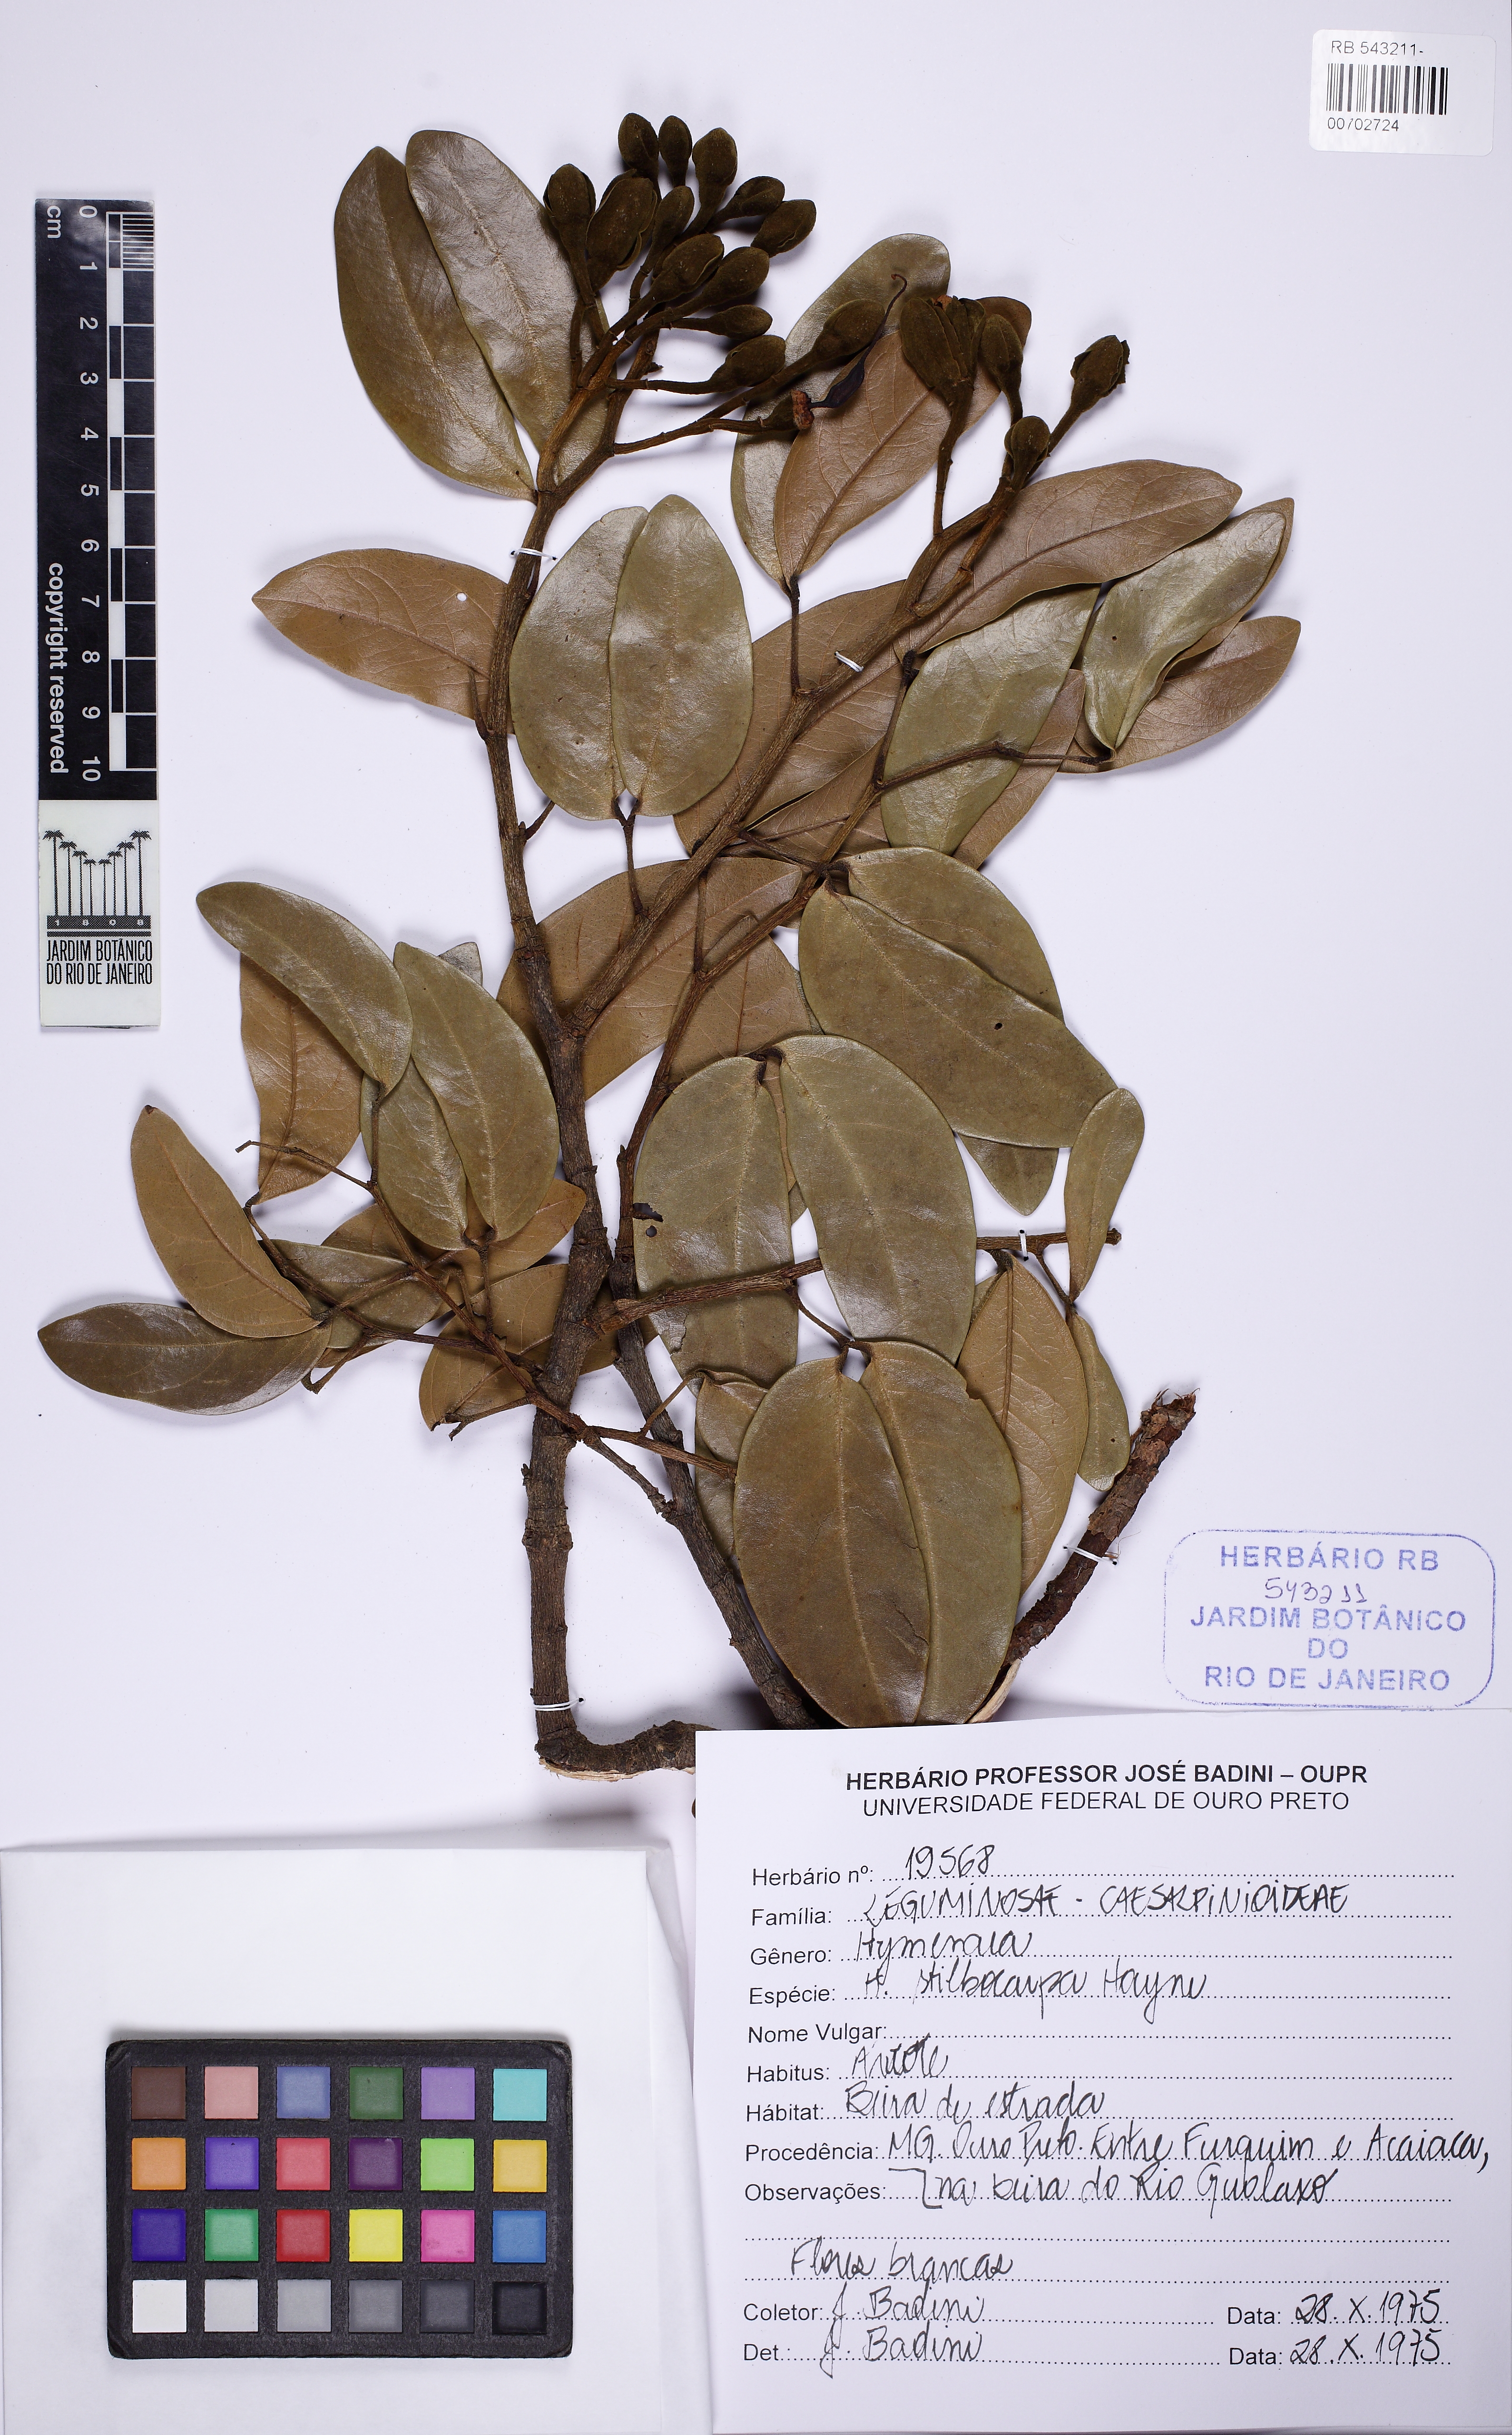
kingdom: Plantae
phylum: Tracheophyta
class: Magnoliopsida
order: Fabales
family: Fabaceae
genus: Hymenaea
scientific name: Hymenaea stigonocarpa
